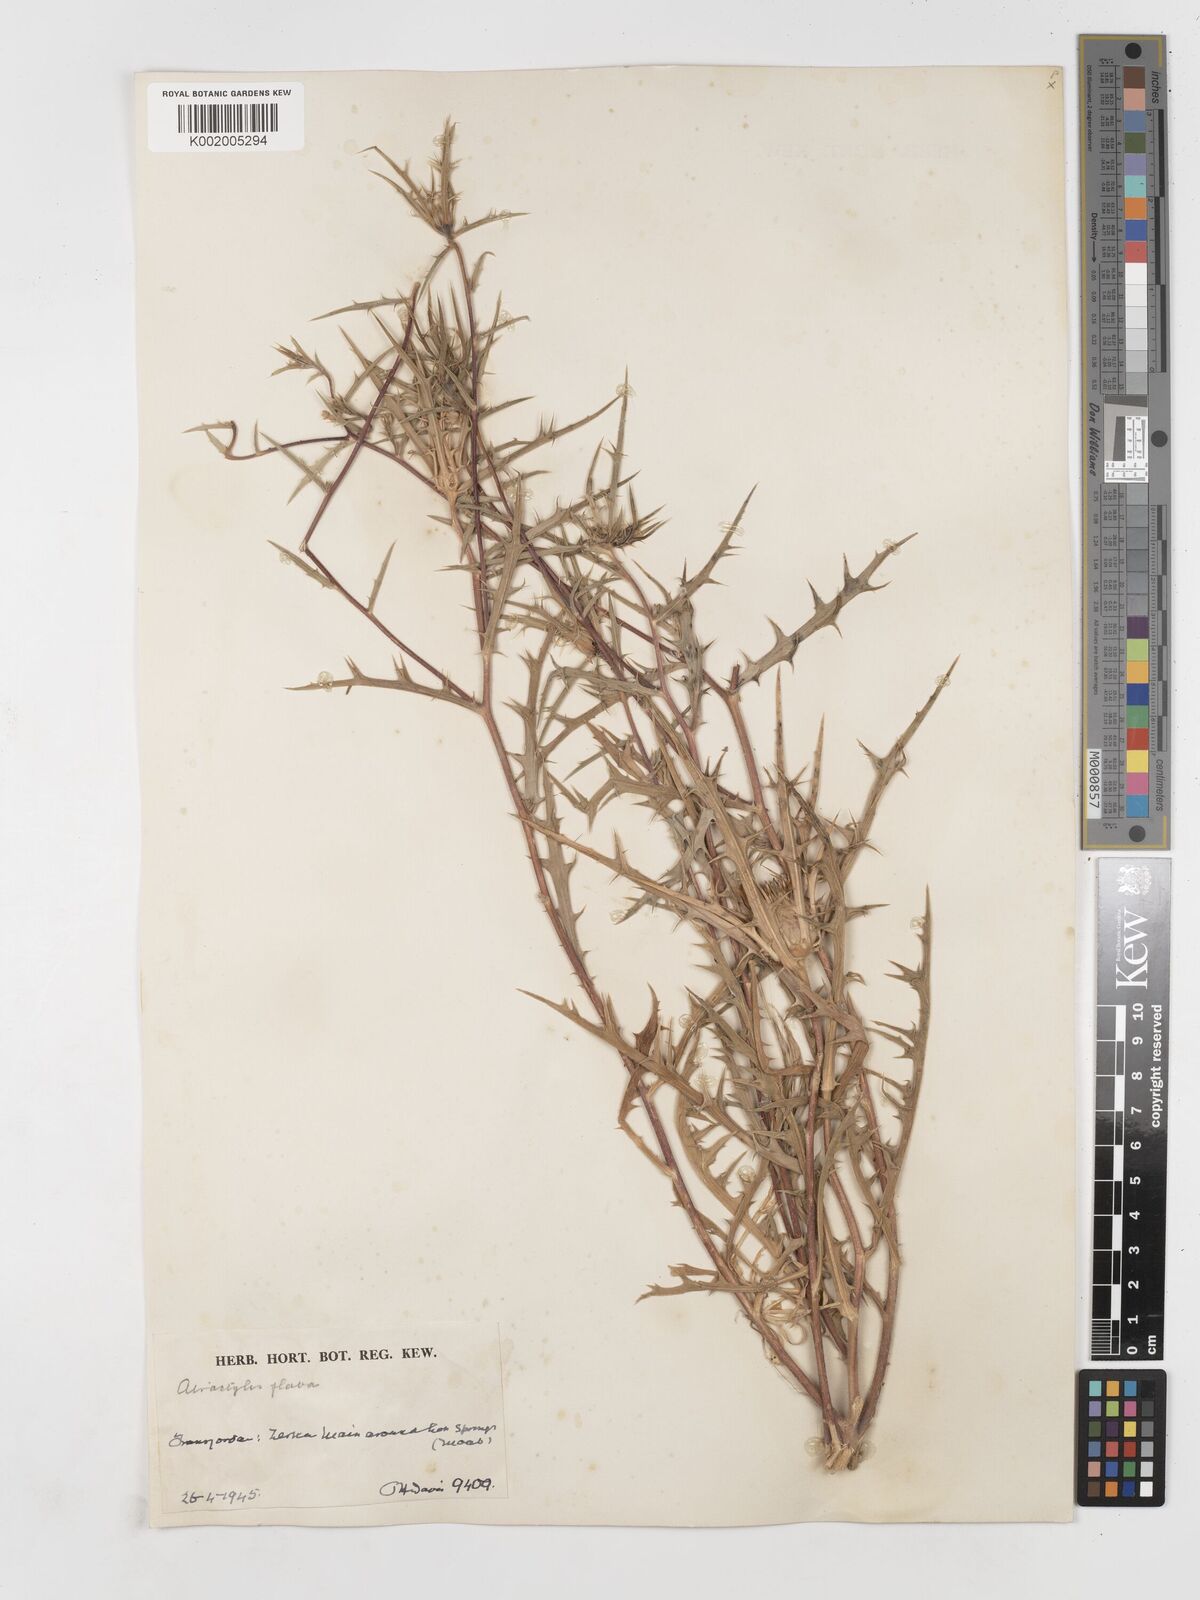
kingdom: Plantae
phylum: Tracheophyta
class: Magnoliopsida
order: Asterales
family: Asteraceae
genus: Atractylis
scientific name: Atractylis carduus
